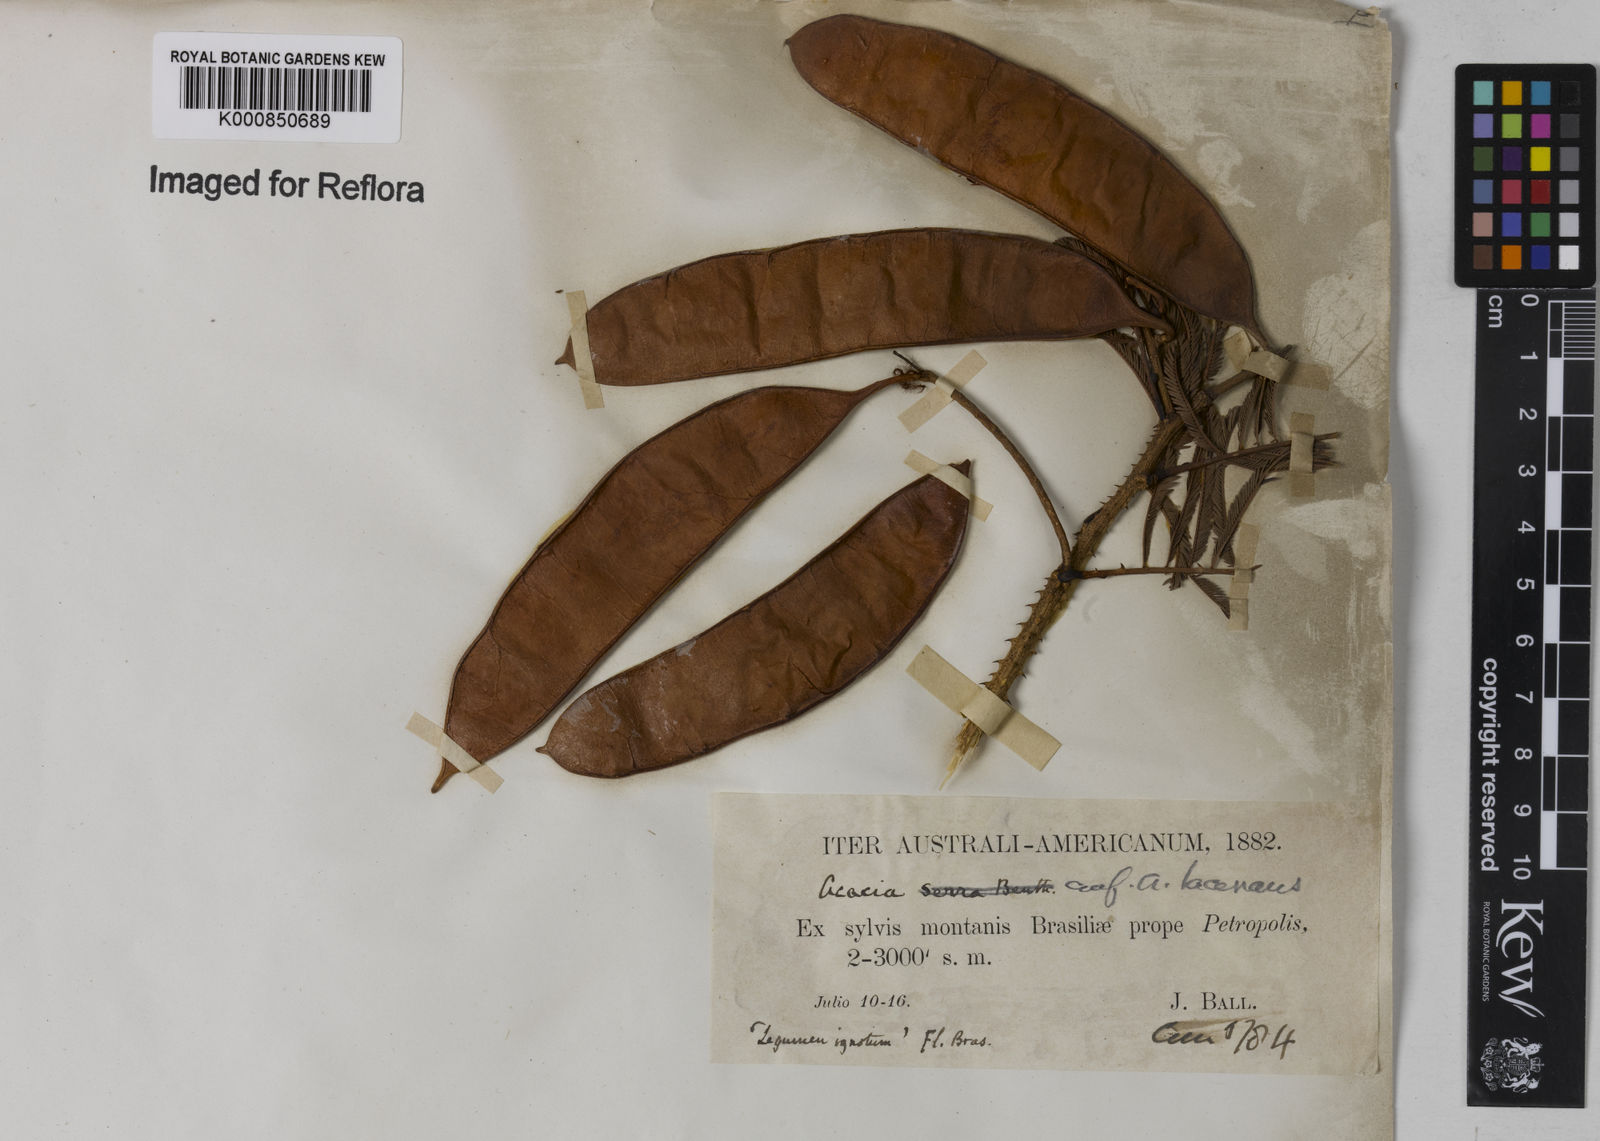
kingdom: Plantae
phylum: Tracheophyta
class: Magnoliopsida
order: Fabales
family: Fabaceae
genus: Senegalia
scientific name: Senegalia lacerans
